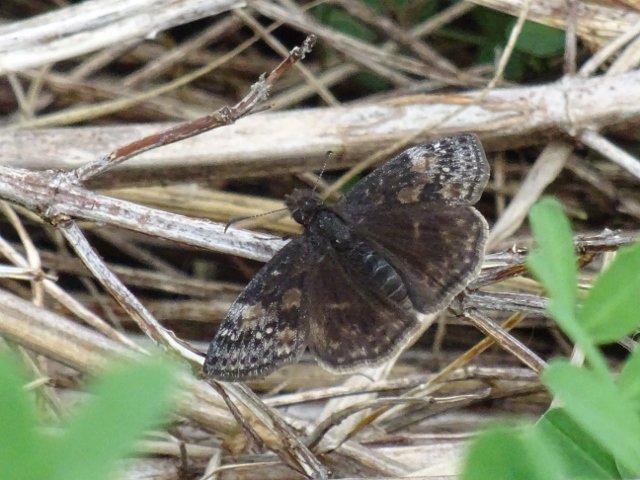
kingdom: Animalia
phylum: Arthropoda
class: Insecta
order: Lepidoptera
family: Hesperiidae
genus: Gesta
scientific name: Gesta
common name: Juvenal's Duskywing
